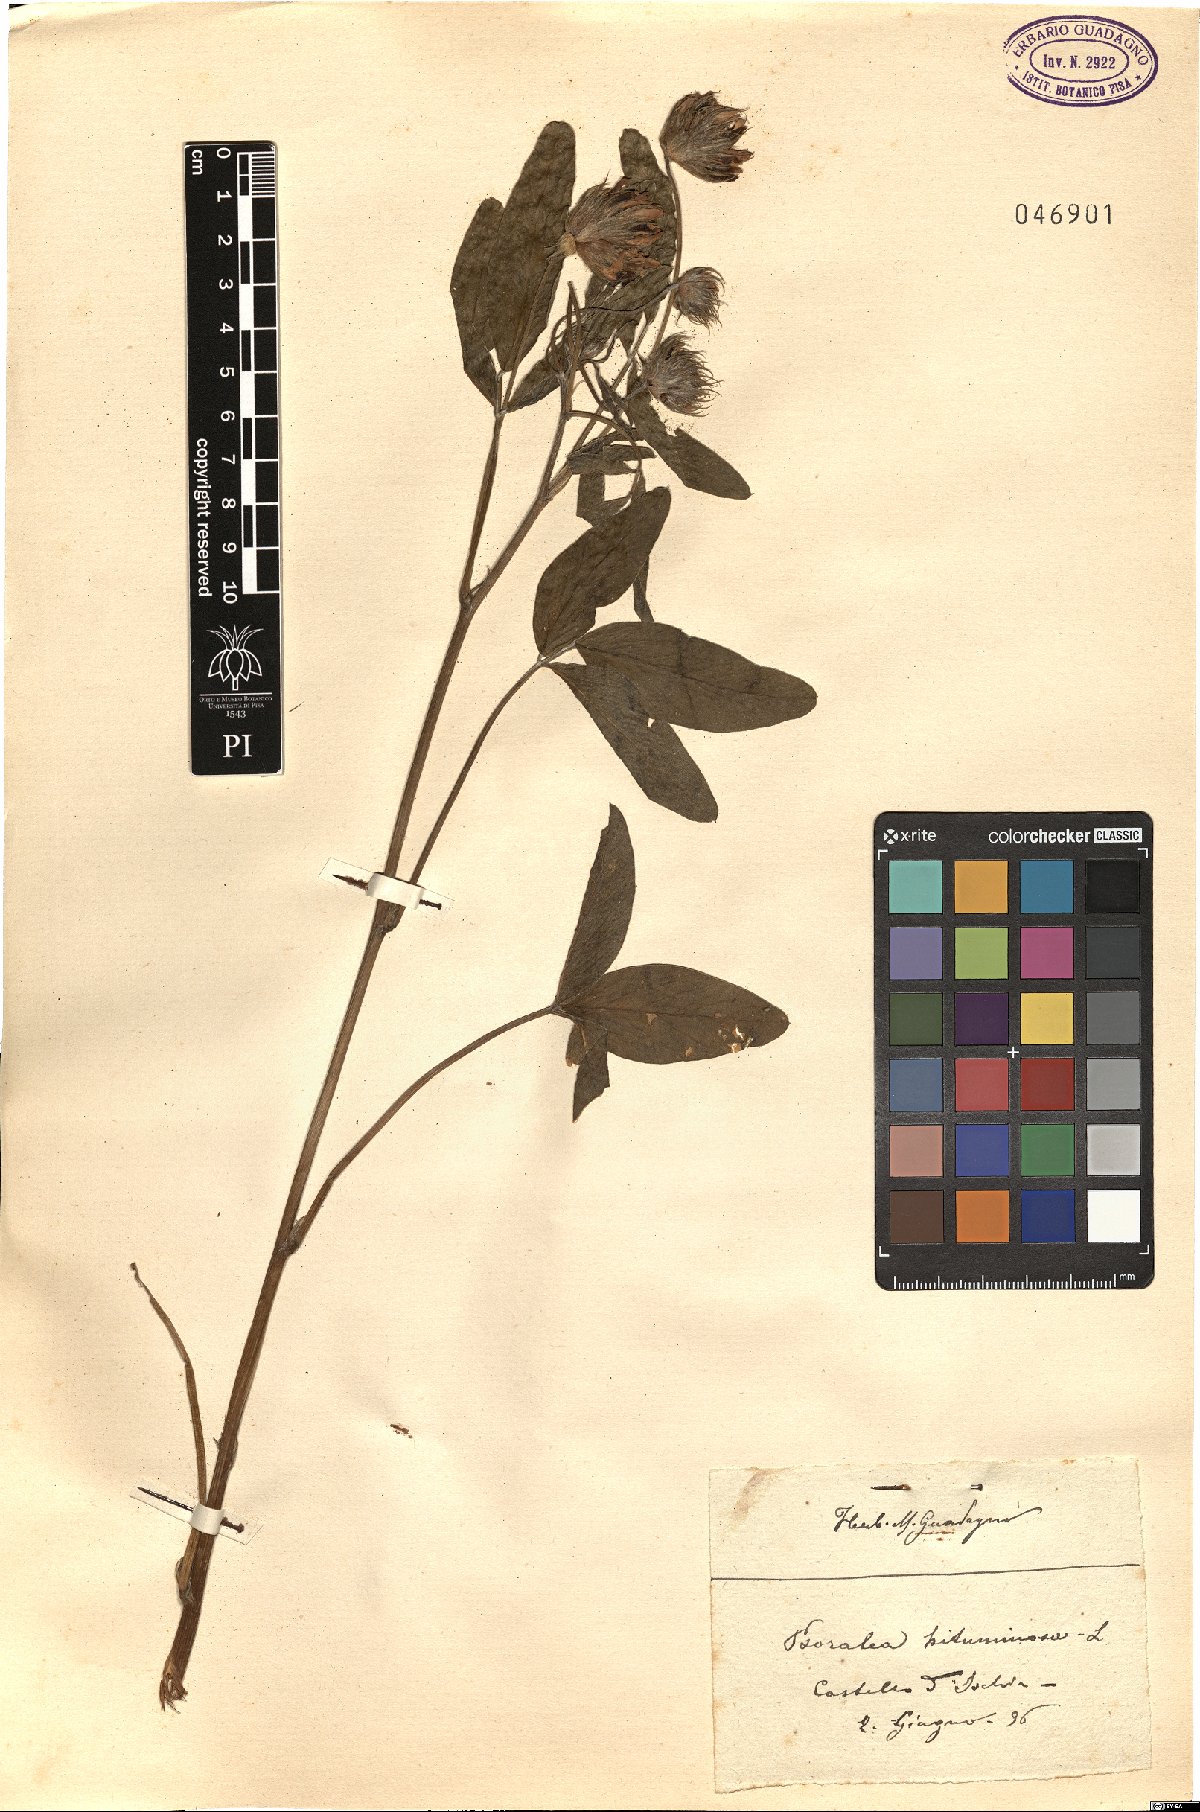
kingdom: Plantae
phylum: Tracheophyta
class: Magnoliopsida
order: Fabales
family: Fabaceae
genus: Bituminaria
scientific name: Bituminaria bituminosa
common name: Arabian pea
